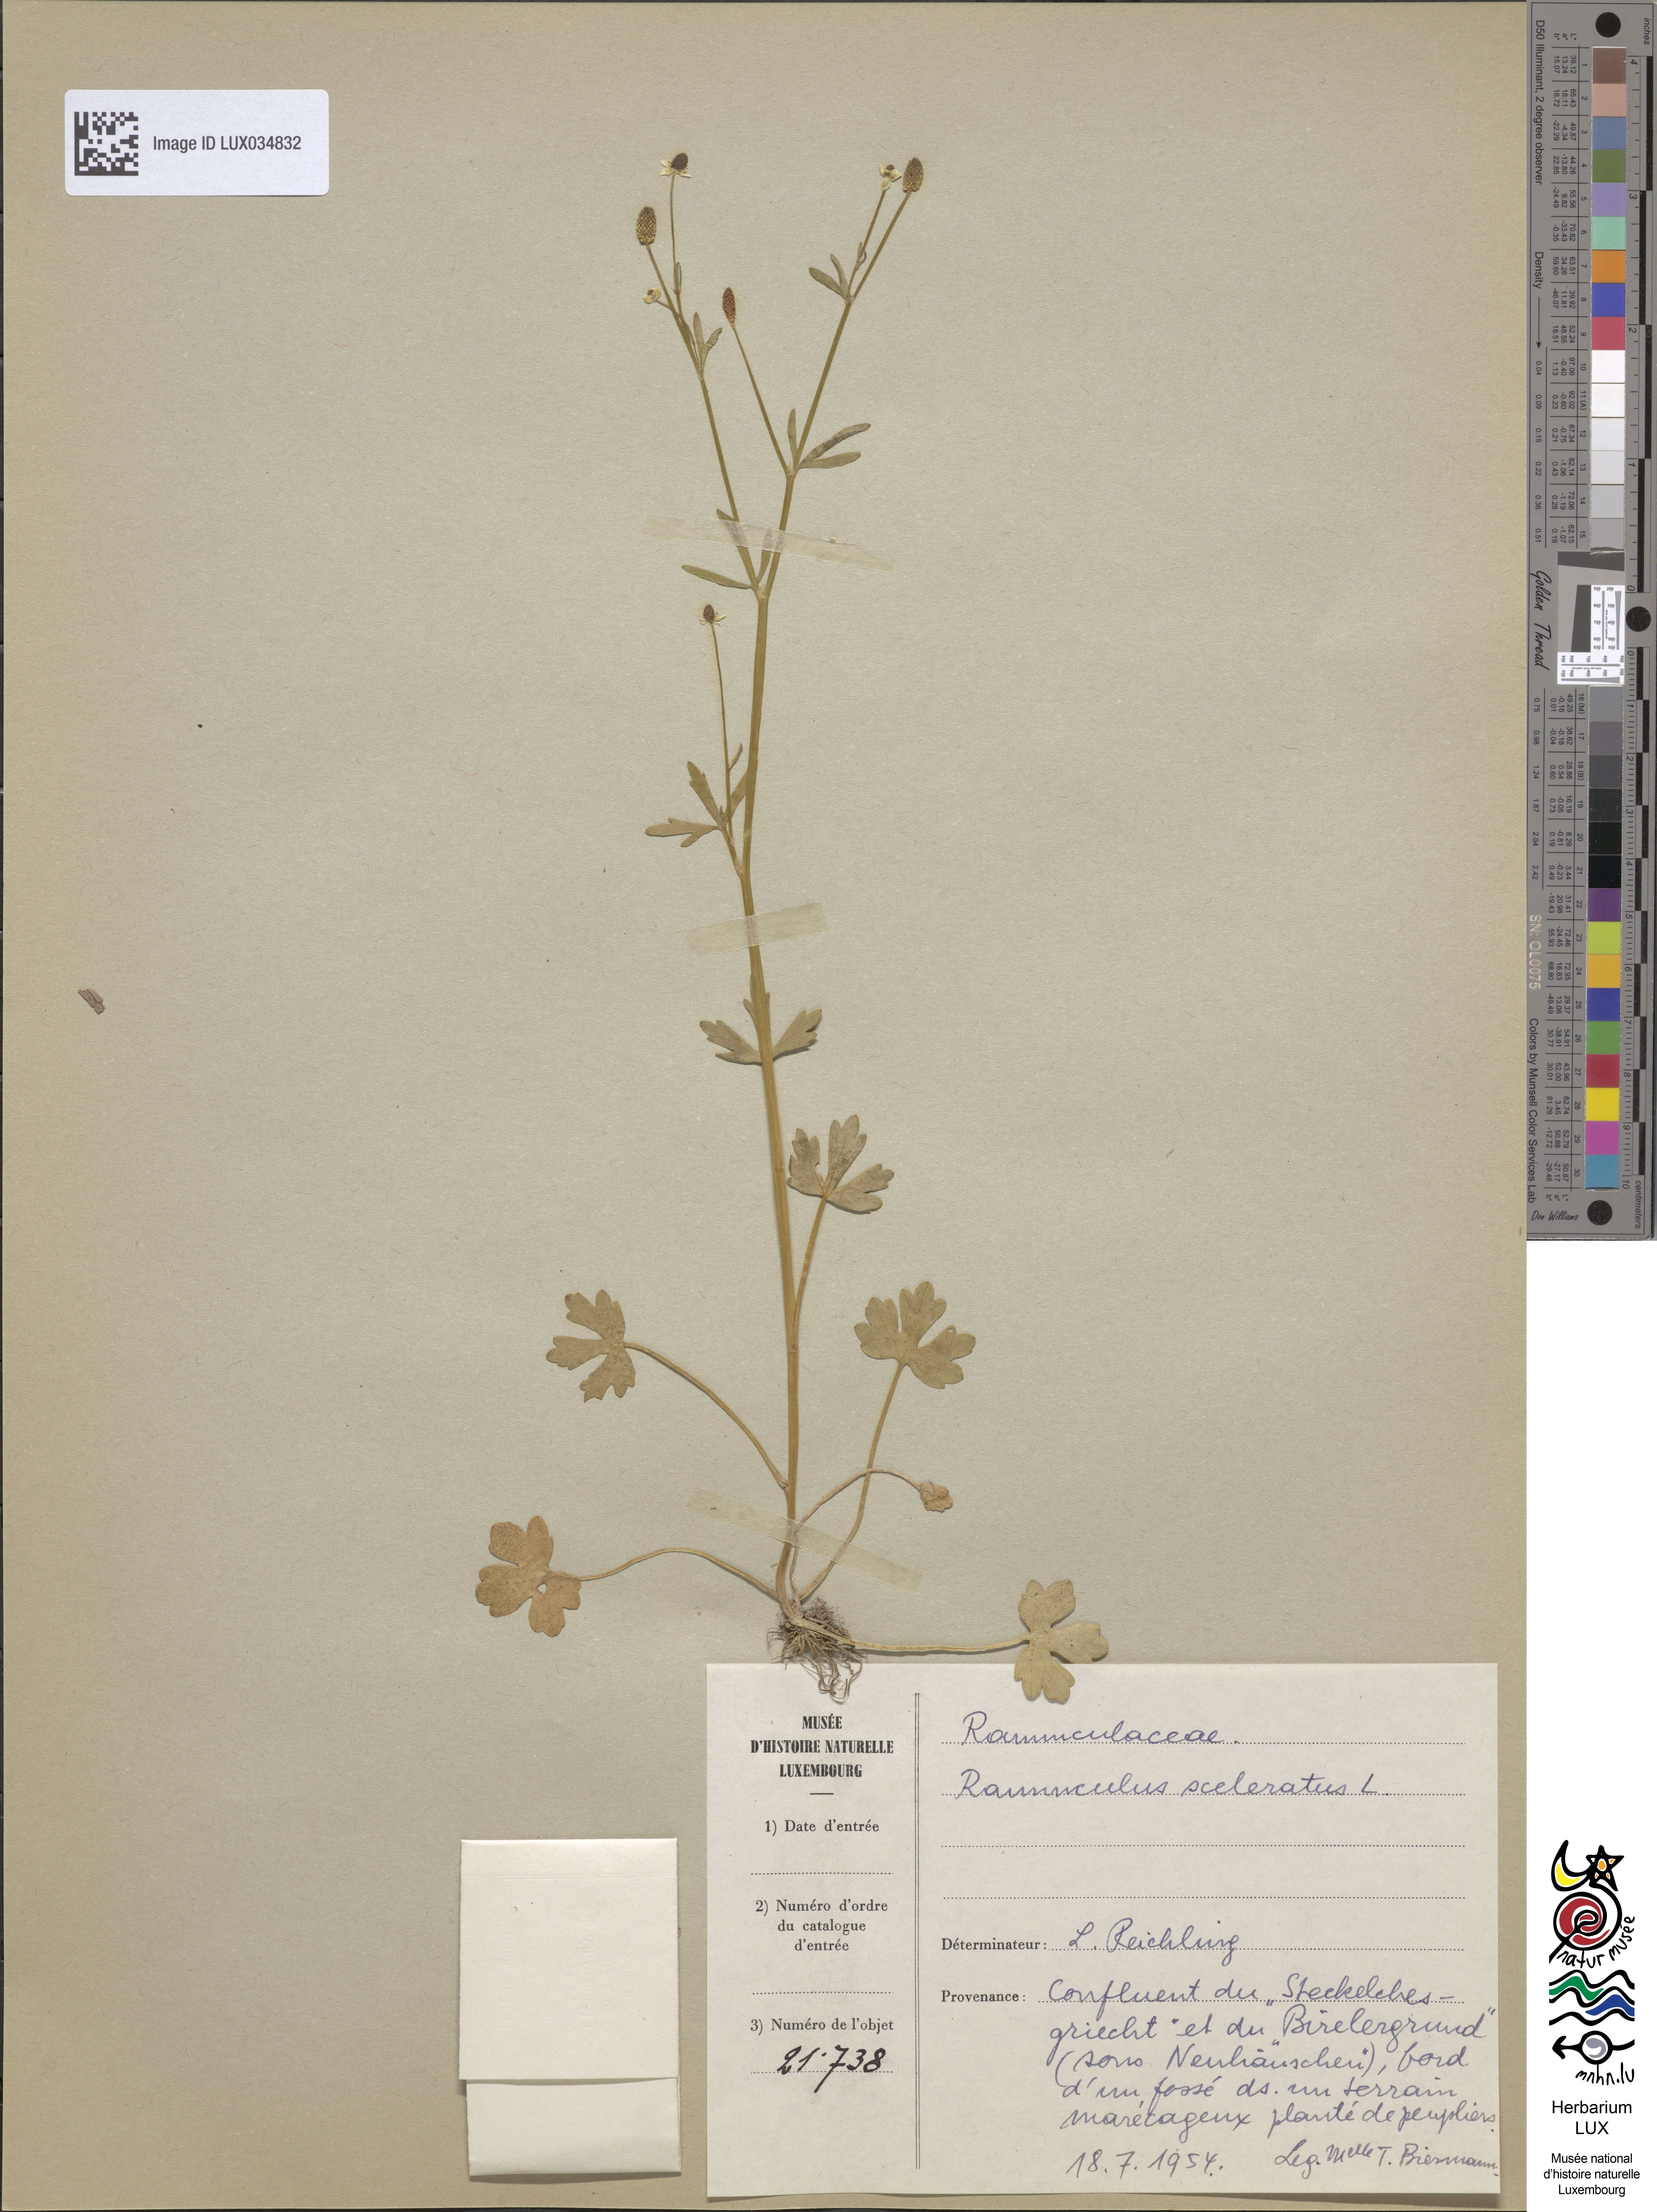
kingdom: Plantae
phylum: Tracheophyta
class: Magnoliopsida
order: Ranunculales
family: Ranunculaceae
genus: Ranunculus
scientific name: Ranunculus sceleratus
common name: Celery-leaved buttercup
